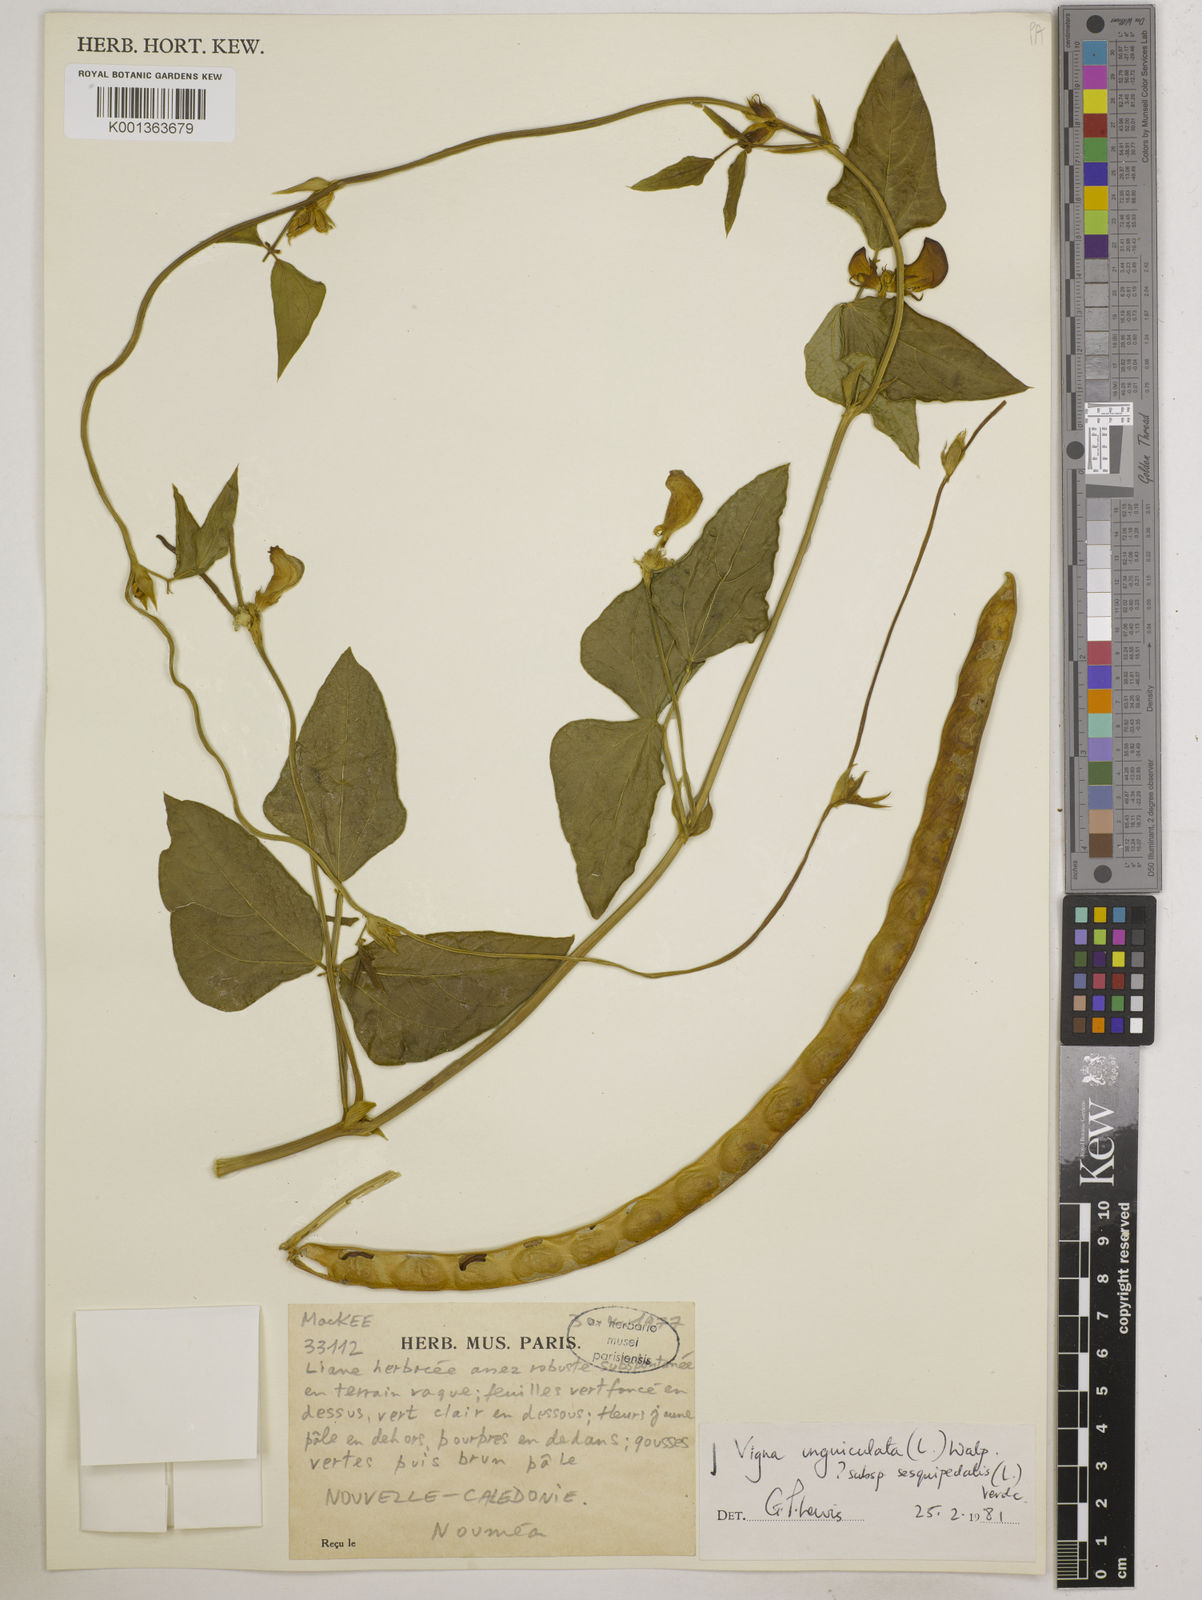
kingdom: Plantae
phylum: Tracheophyta
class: Magnoliopsida
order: Fabales
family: Fabaceae
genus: Vigna
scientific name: Vigna unguiculata
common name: Cowpea
